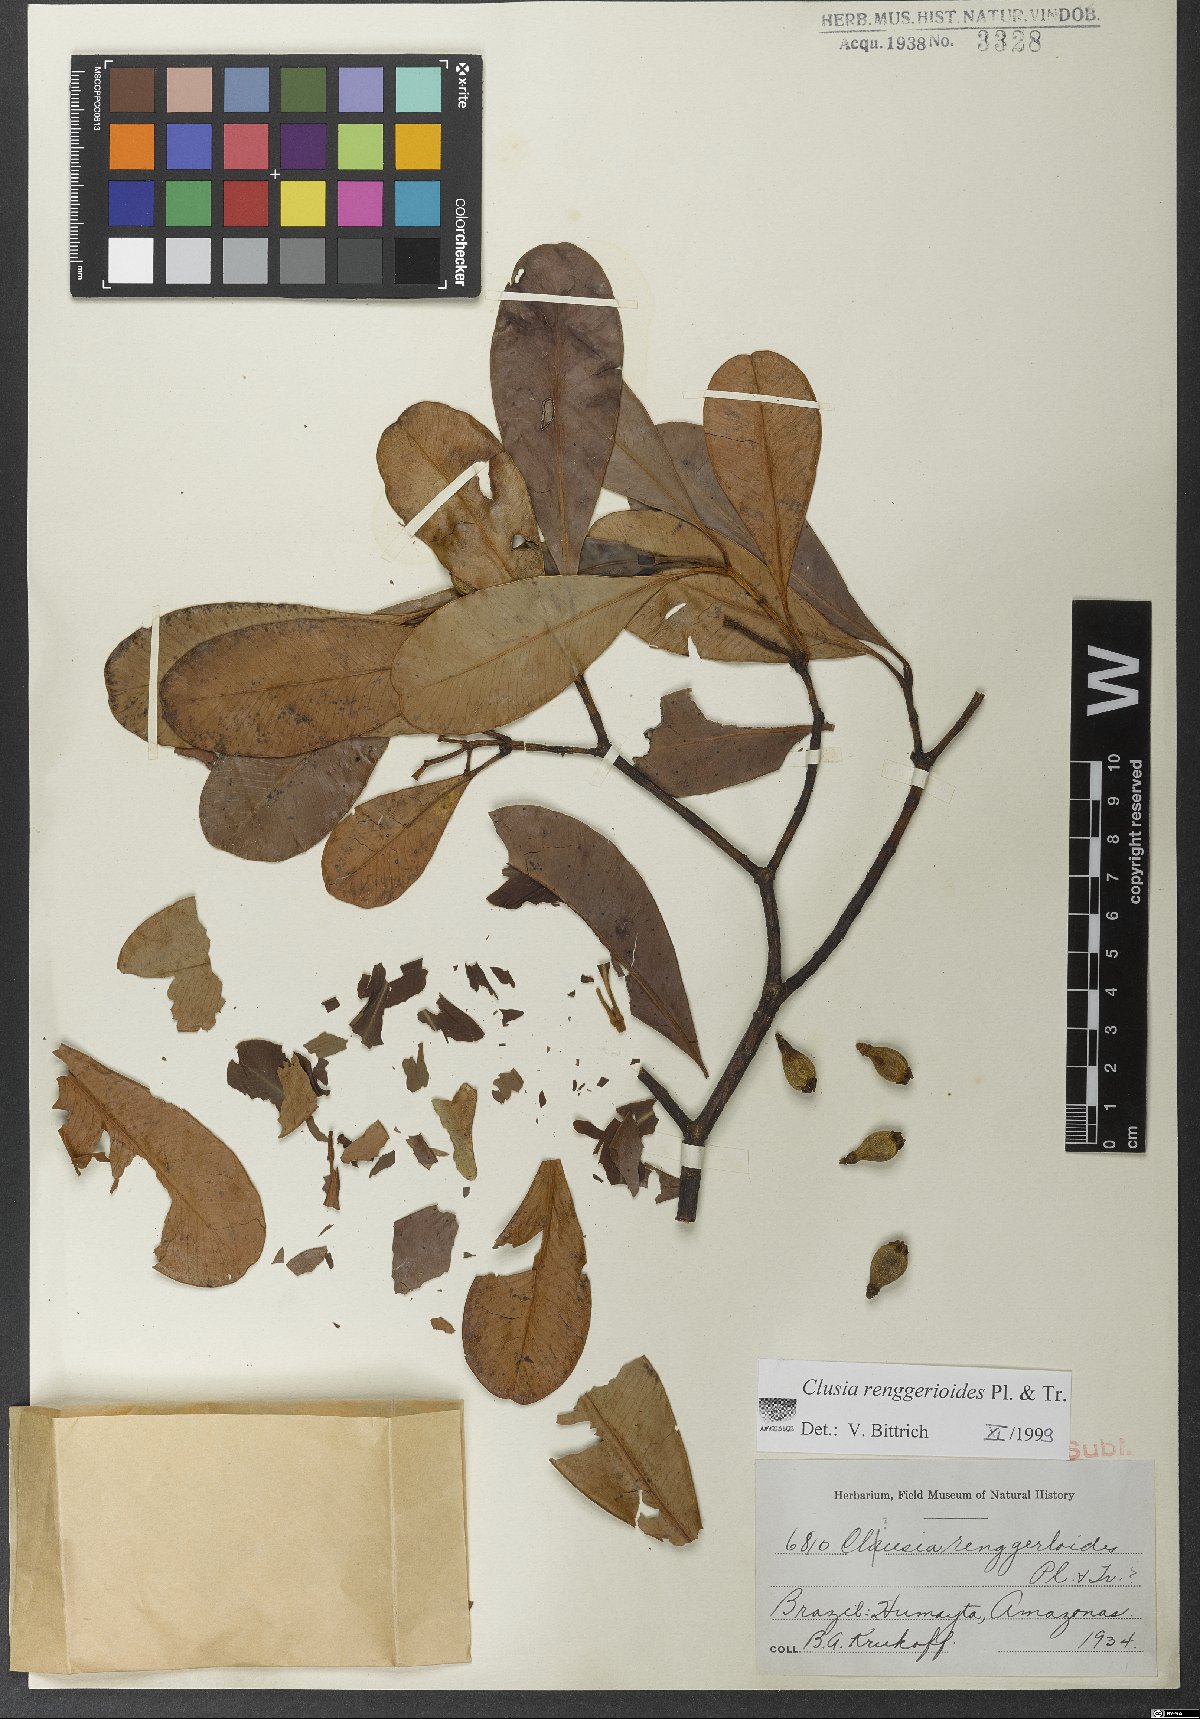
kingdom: Plantae
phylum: Tracheophyta
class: Magnoliopsida
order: Malpighiales
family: Clusiaceae
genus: Clusia
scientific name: Clusia renggerioides
